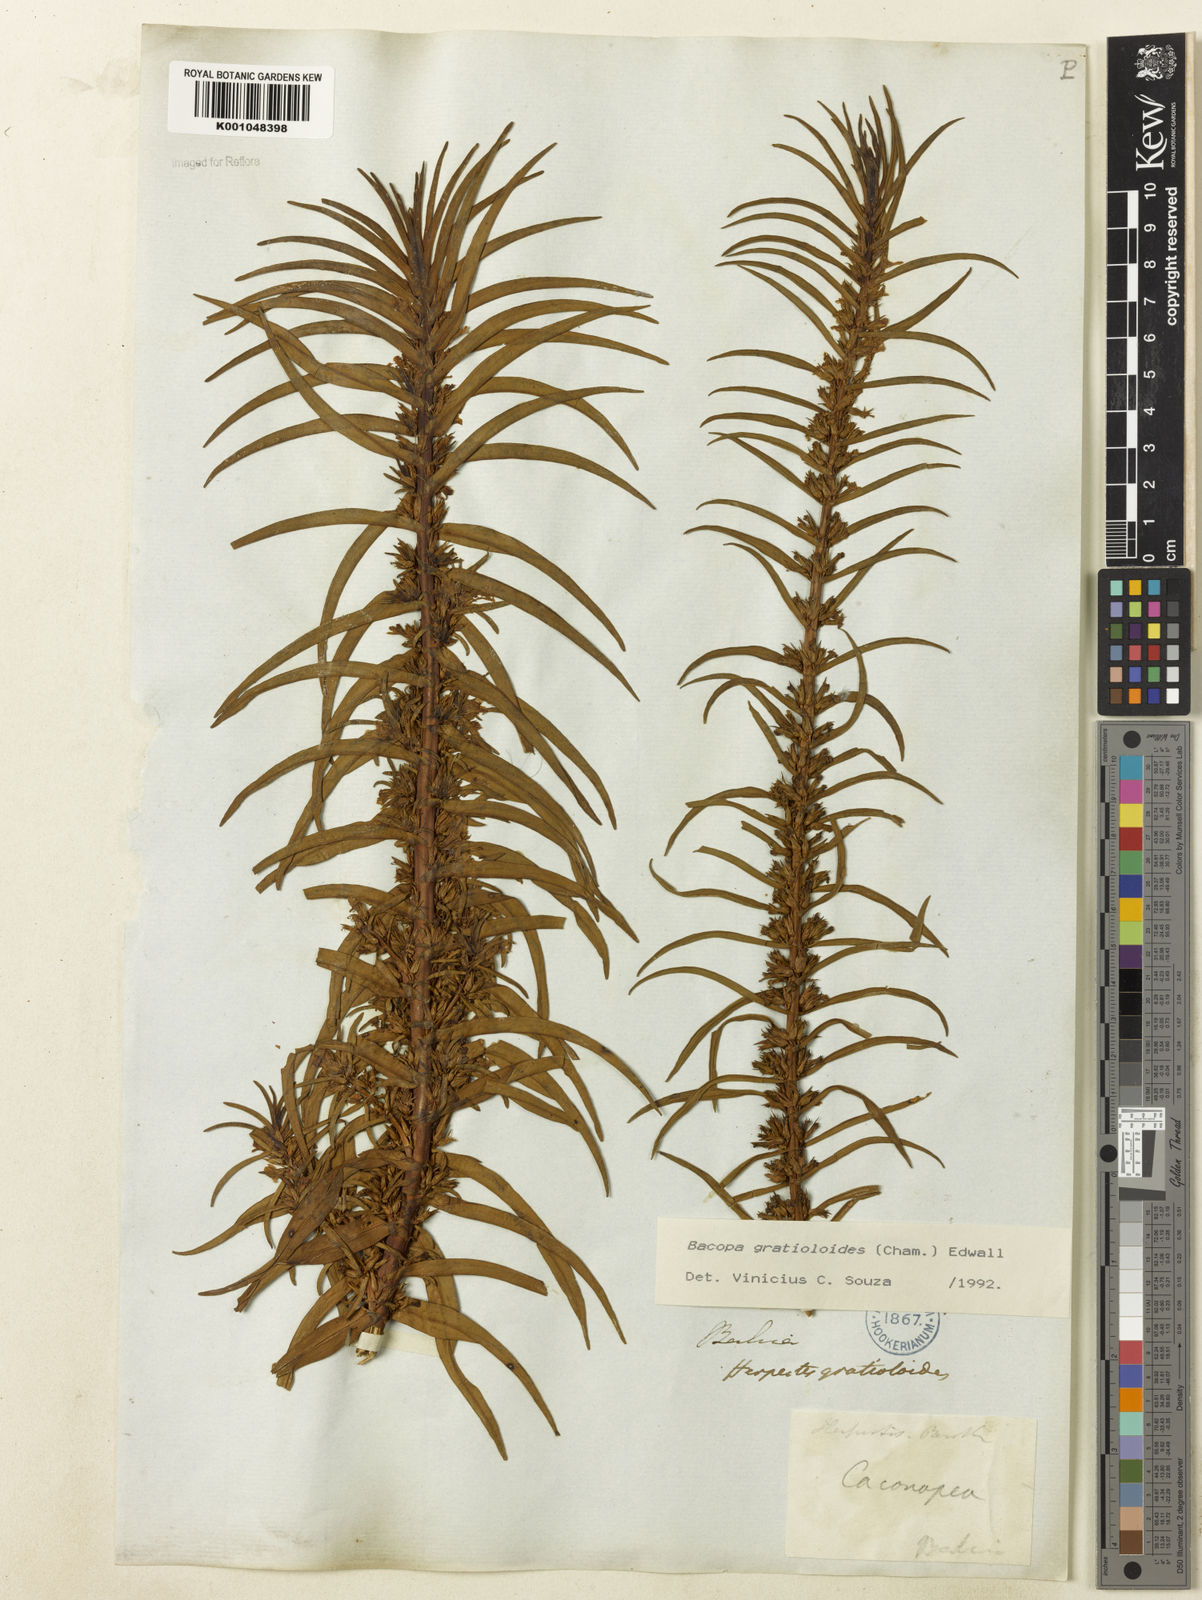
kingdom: Plantae
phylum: Tracheophyta
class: Magnoliopsida
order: Lamiales
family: Plantaginaceae
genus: Bacopa
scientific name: Bacopa
